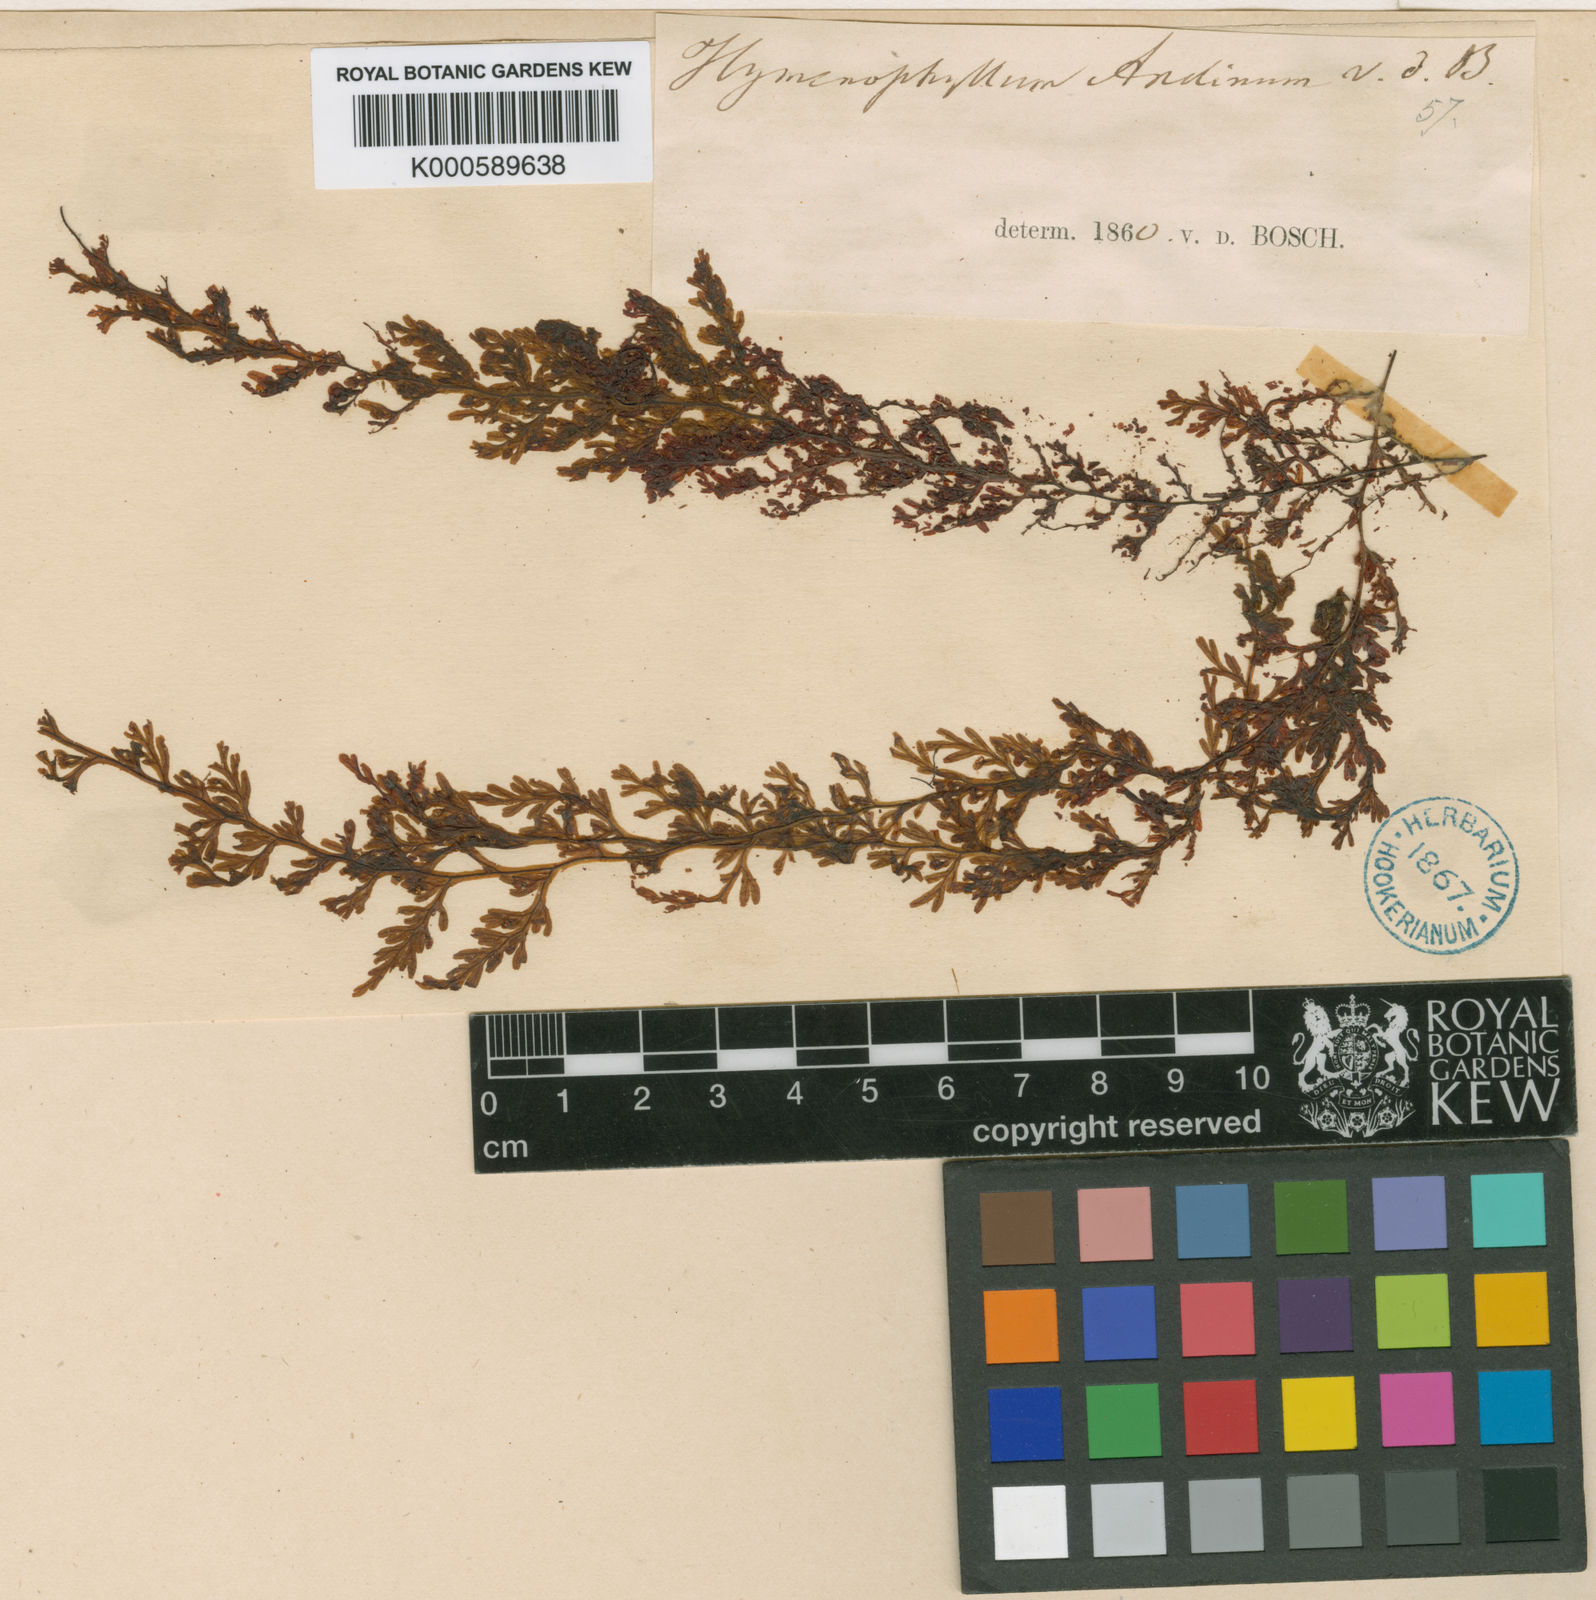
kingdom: Plantae
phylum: Tracheophyta
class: Polypodiopsida
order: Hymenophyllales
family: Hymenophyllaceae
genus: Hymenophyllum
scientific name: Hymenophyllum andinum
